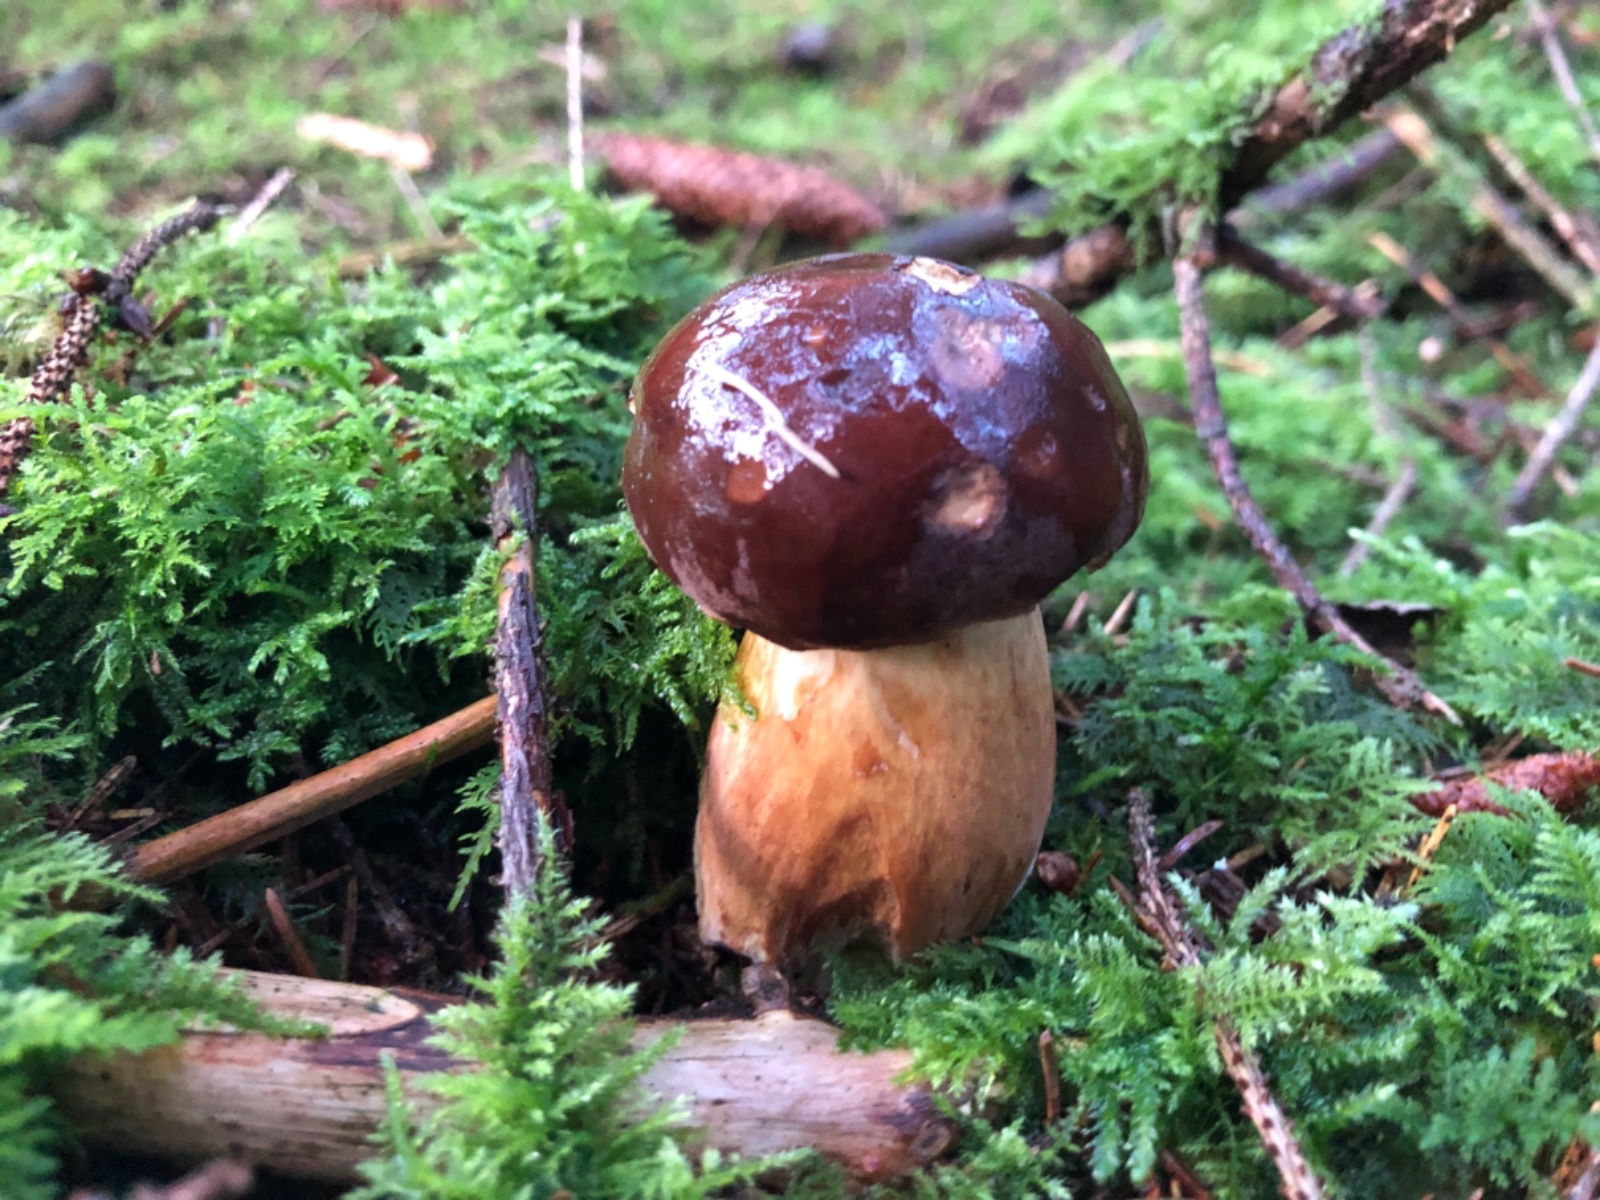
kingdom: Fungi
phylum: Basidiomycota
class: Agaricomycetes
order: Boletales
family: Boletaceae
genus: Imleria
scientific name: Imleria badia
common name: brunstokket rørhat
